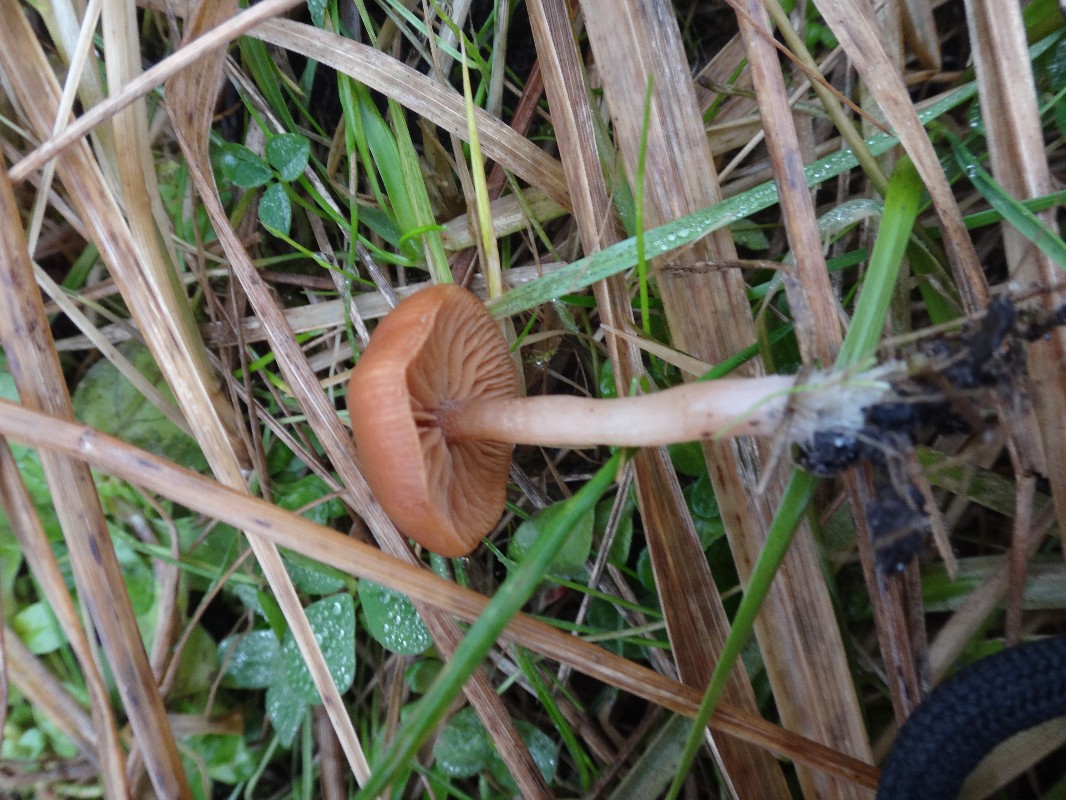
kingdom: Fungi
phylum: Basidiomycota
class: Agaricomycetes
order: Agaricales
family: Tubariaceae
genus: Tubaria
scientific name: Tubaria furfuracea
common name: kliddet fnughat
